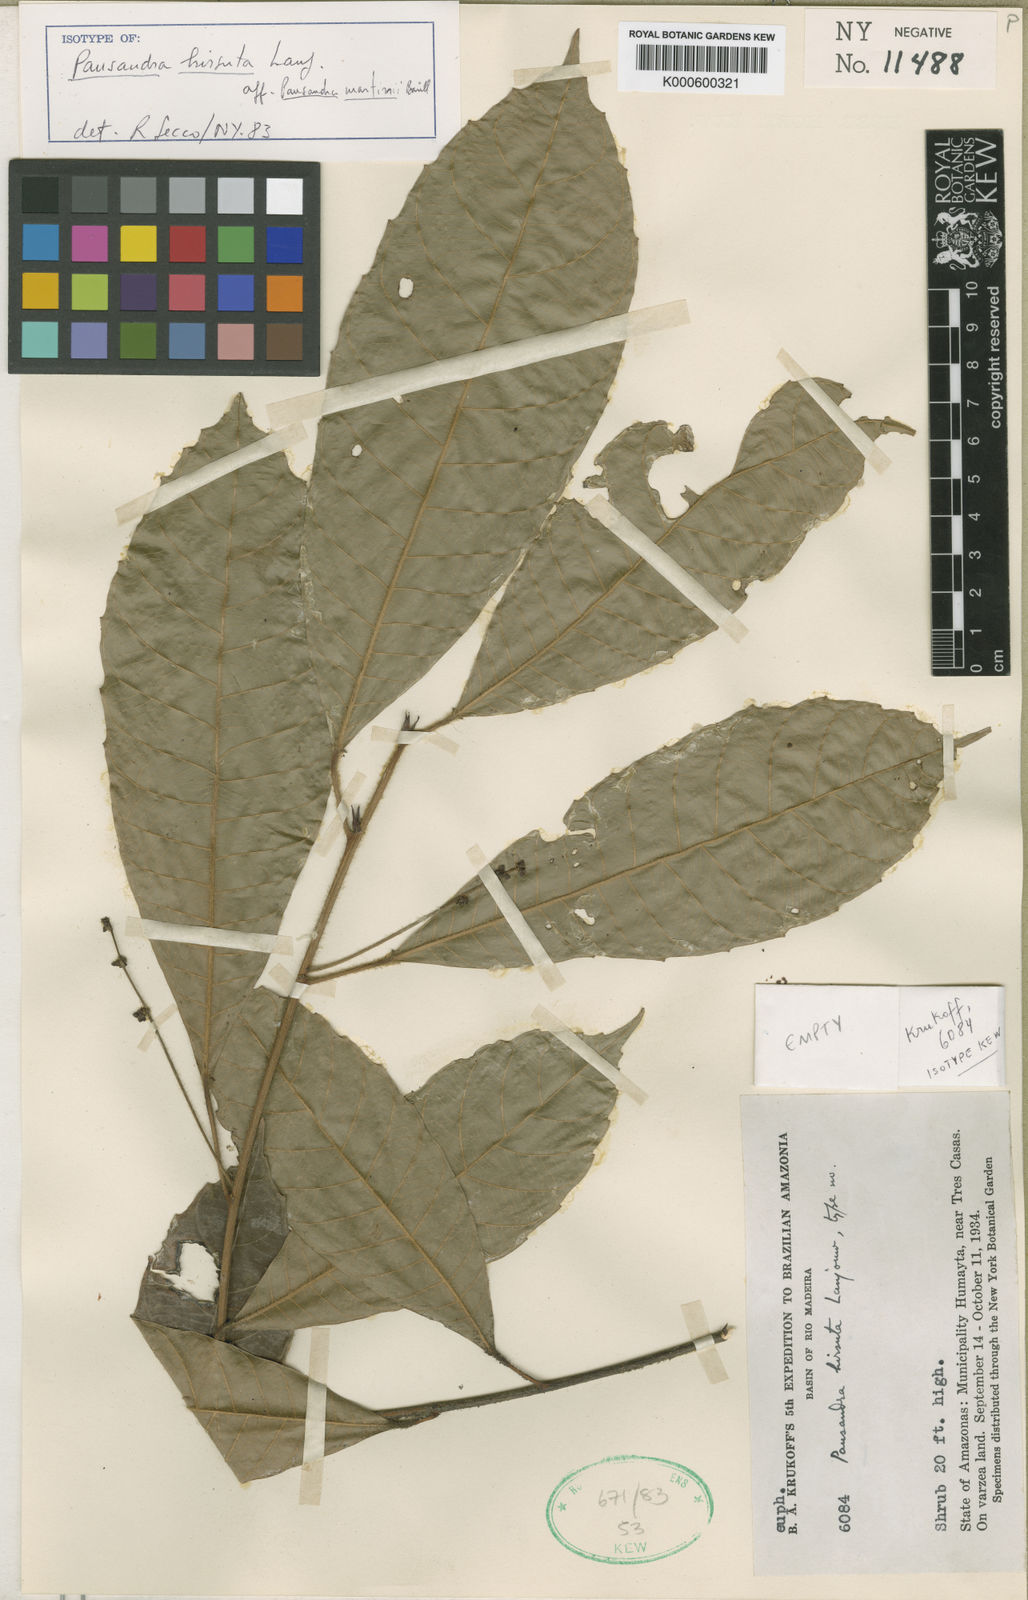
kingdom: Plantae
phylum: Tracheophyta
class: Magnoliopsida
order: Malpighiales
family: Euphorbiaceae
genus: Pausandra
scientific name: Pausandra hirsuta
